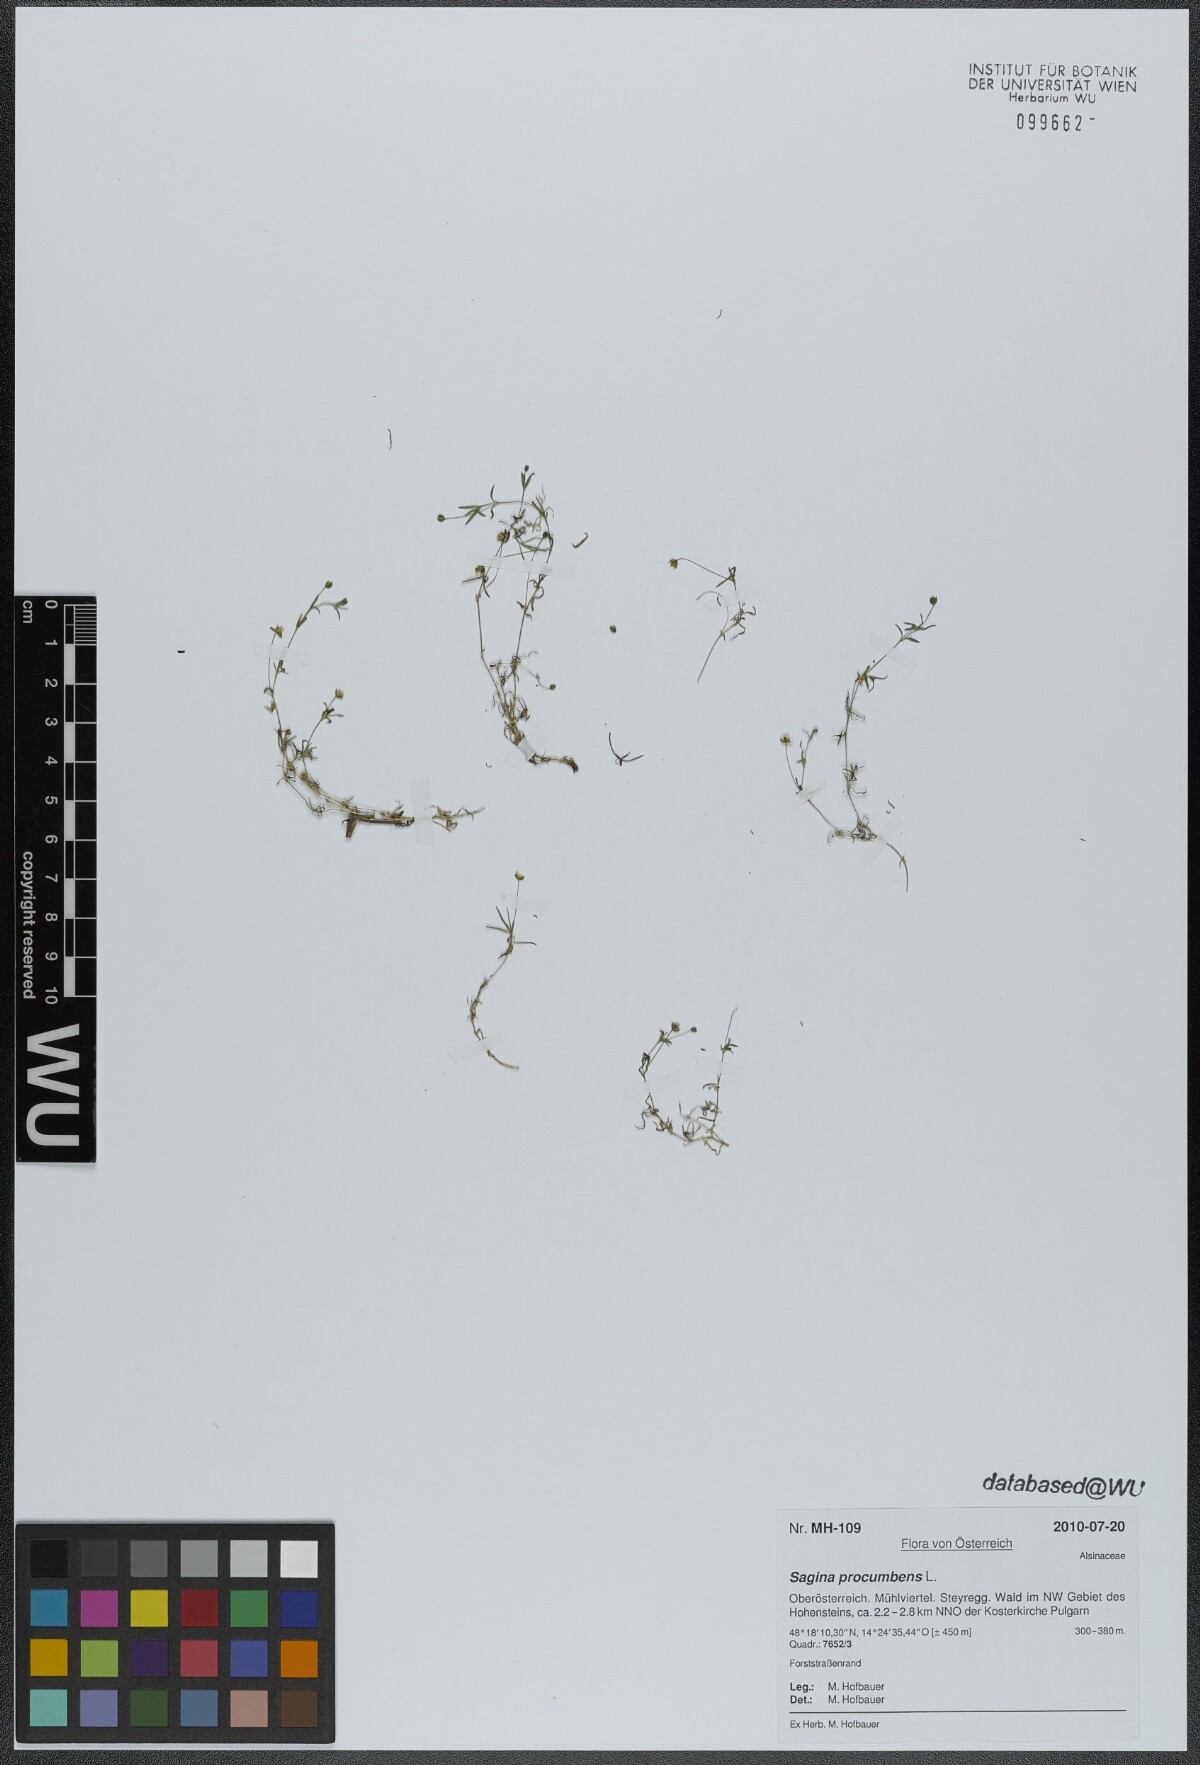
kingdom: Plantae
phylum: Tracheophyta
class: Magnoliopsida
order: Caryophyllales
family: Caryophyllaceae
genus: Sagina
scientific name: Sagina procumbens
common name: Procumbent pearlwort
